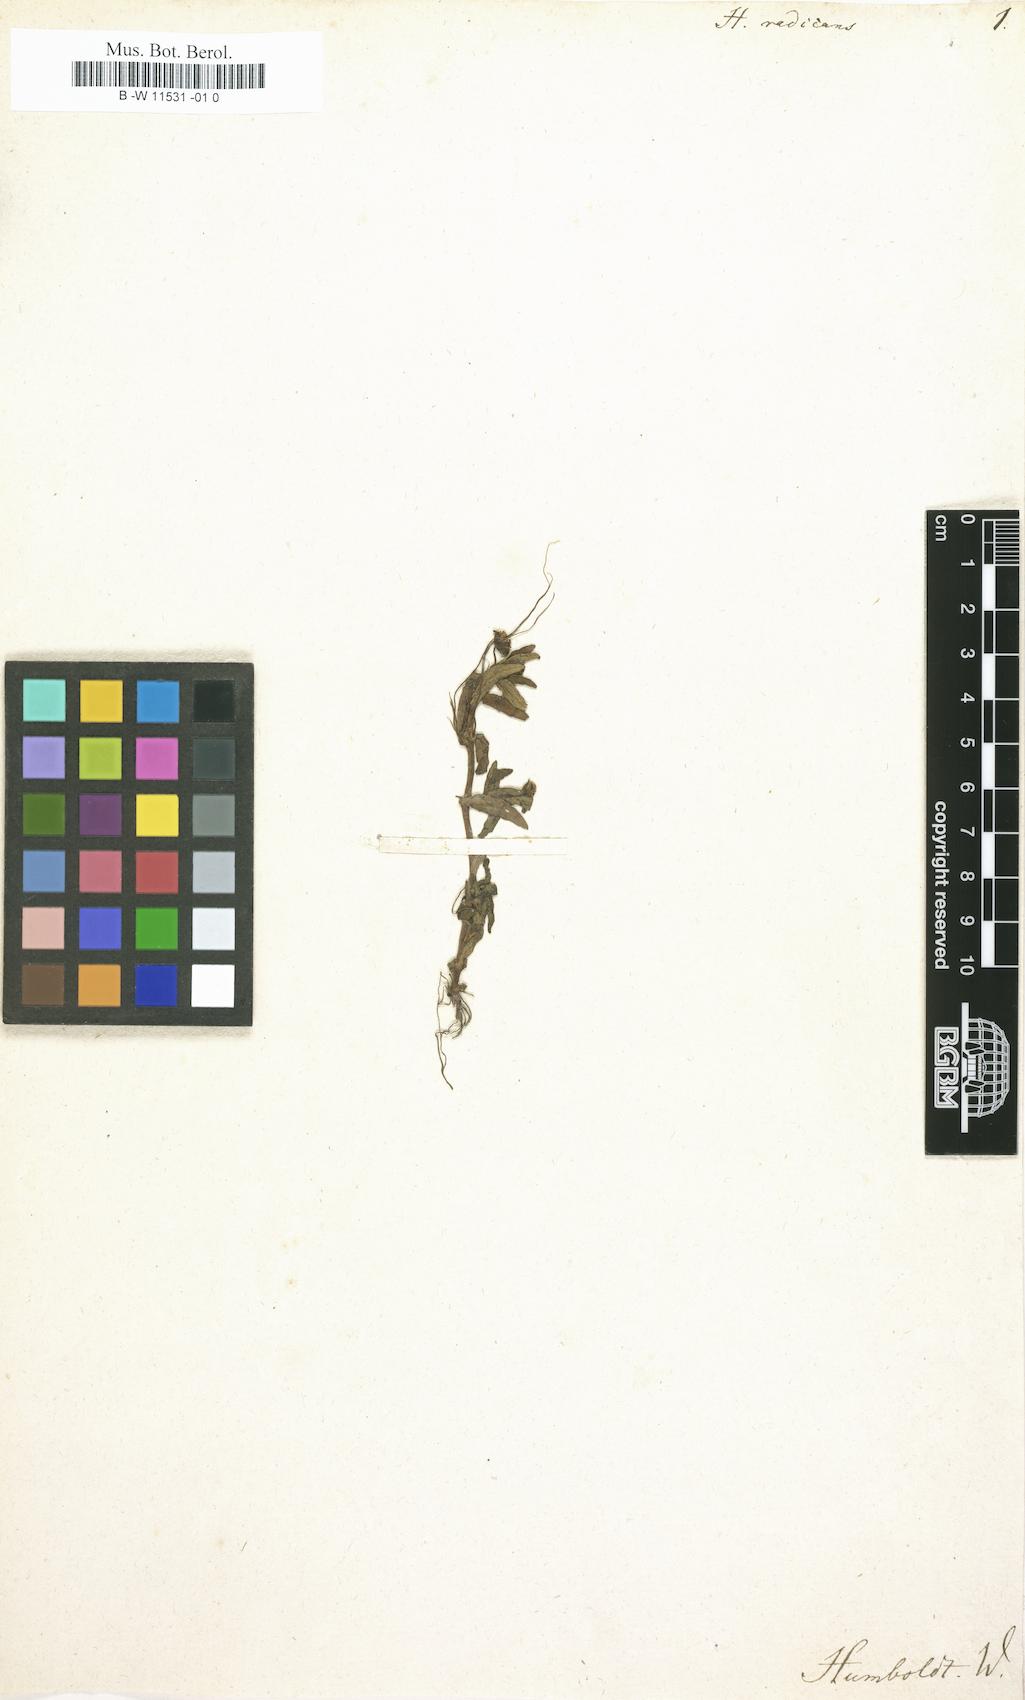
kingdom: Plantae
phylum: Tracheophyta
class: Magnoliopsida
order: Lamiales
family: Plantaginaceae
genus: Mecardonia
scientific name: Mecardonia flagellaris
